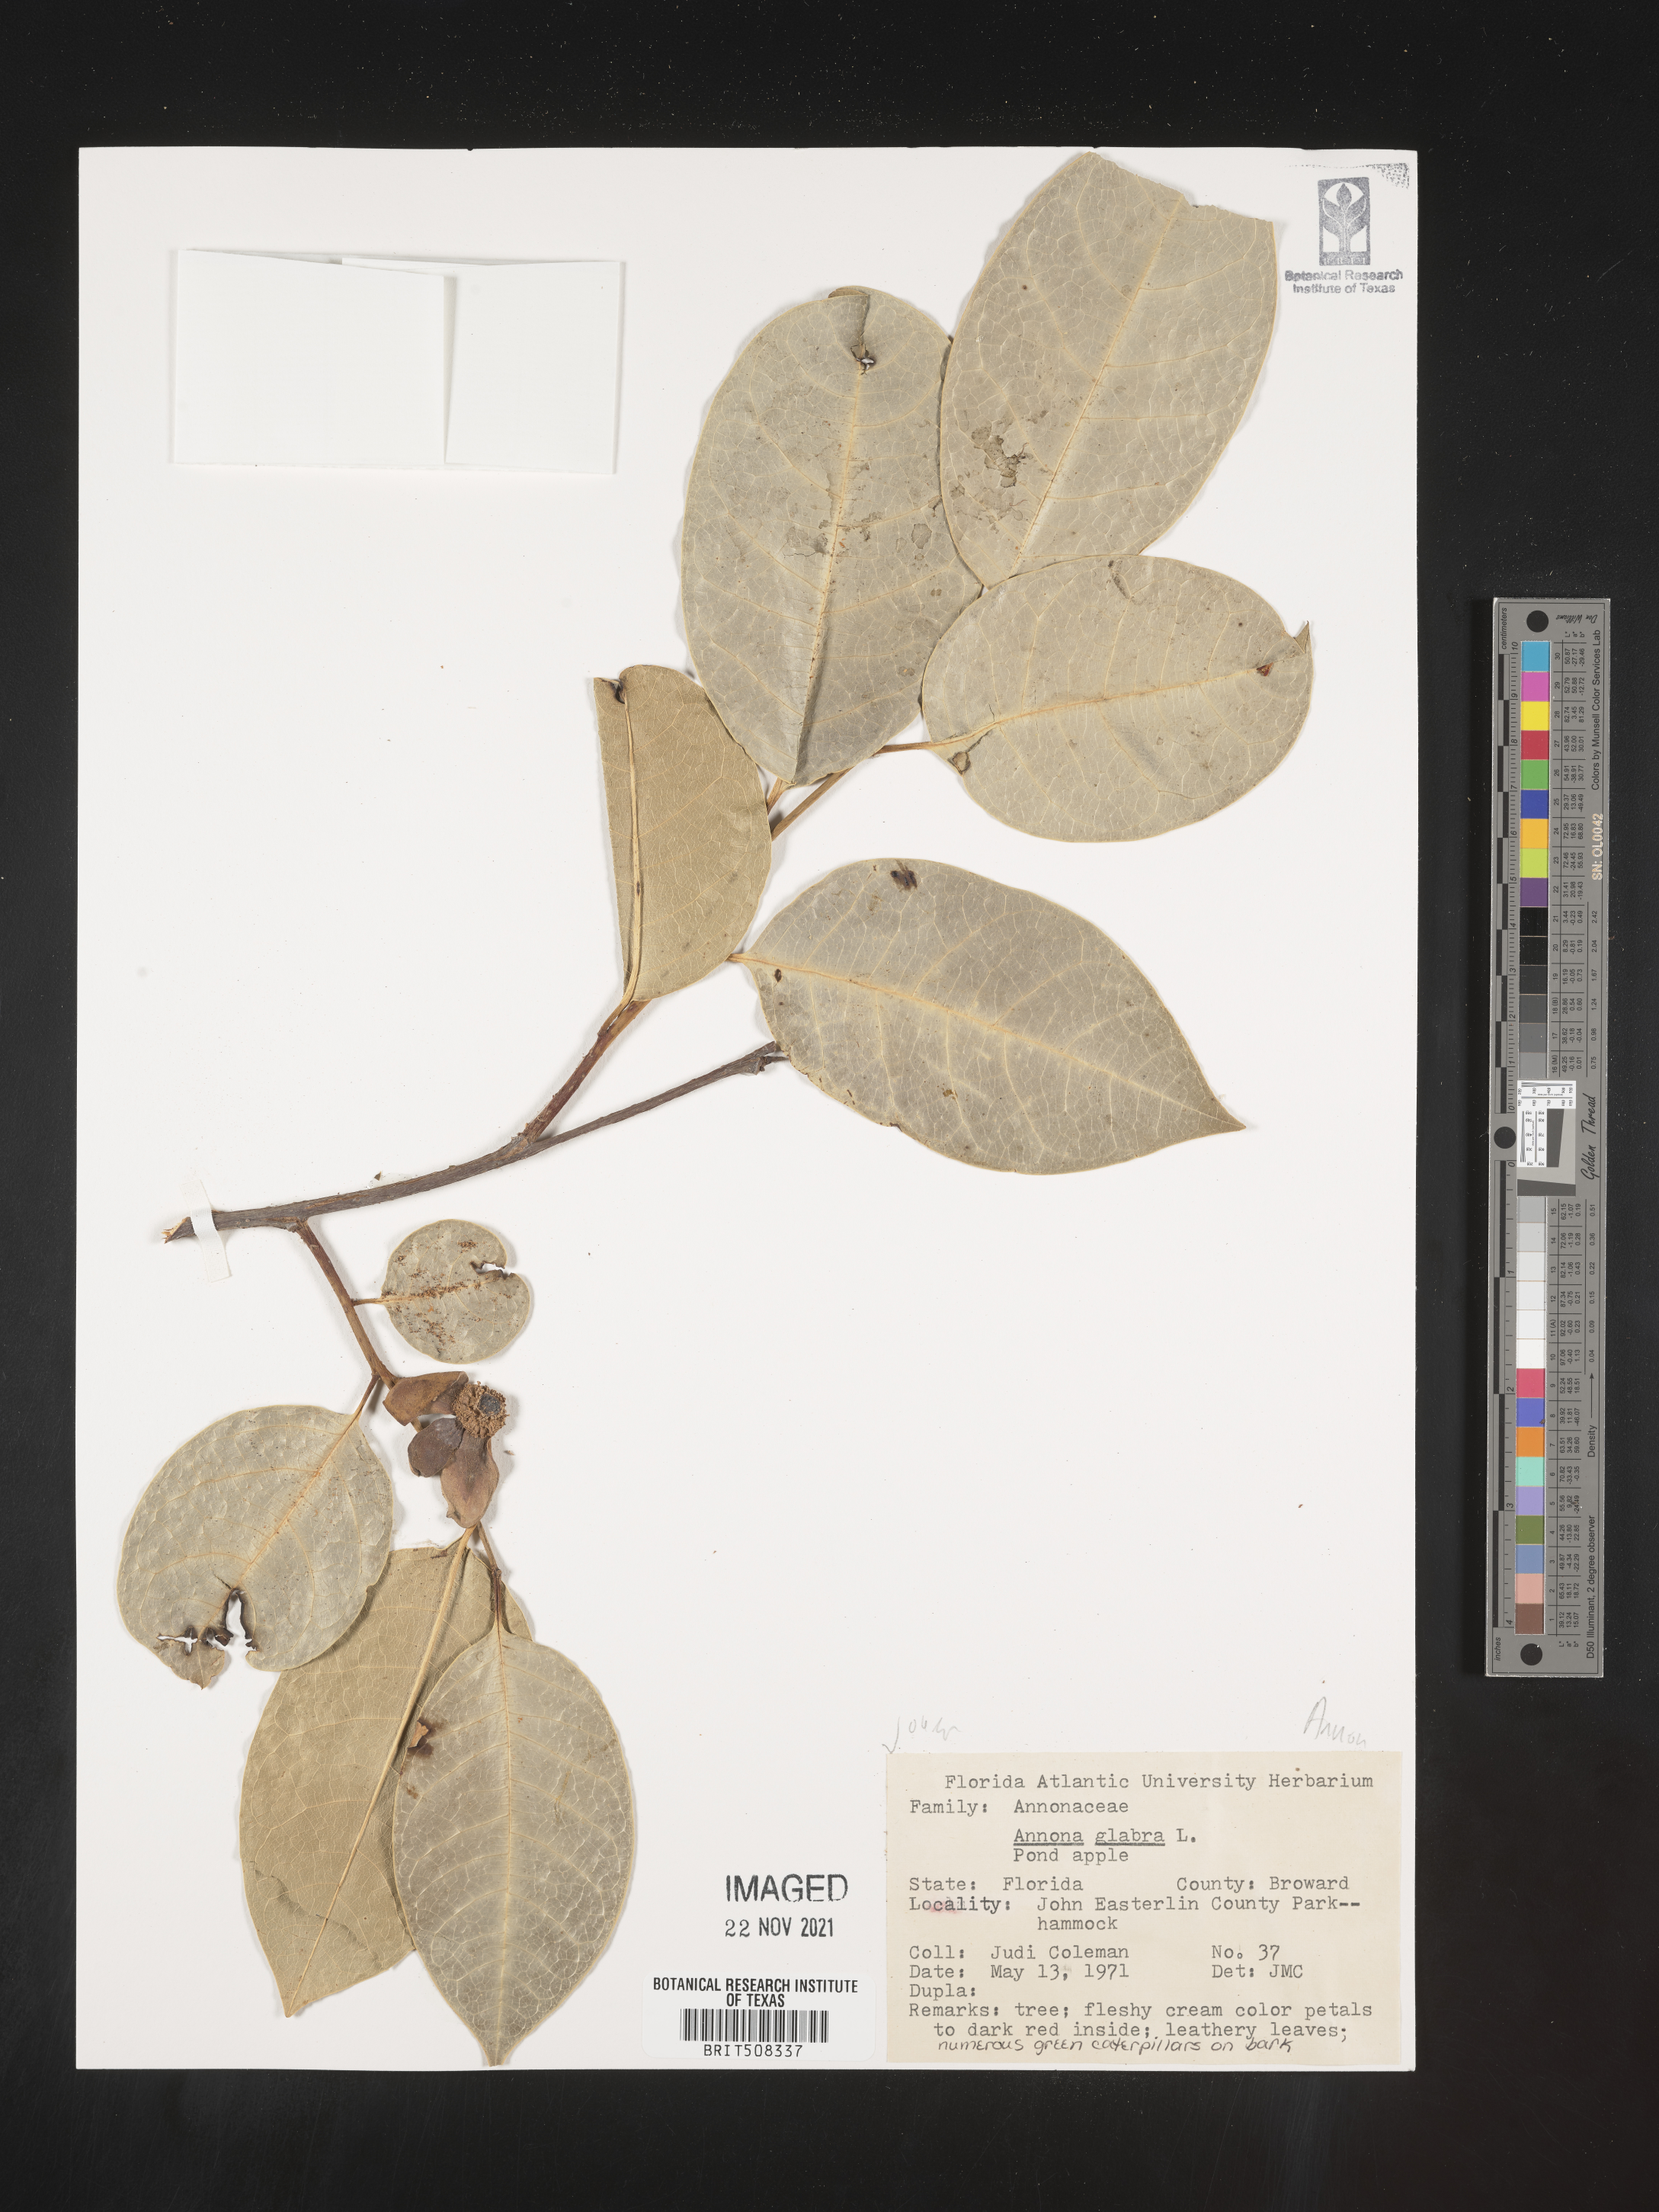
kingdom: Plantae
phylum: Tracheophyta
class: Magnoliopsida
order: Magnoliales
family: Annonaceae
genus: Annona
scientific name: Annona
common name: Anona
